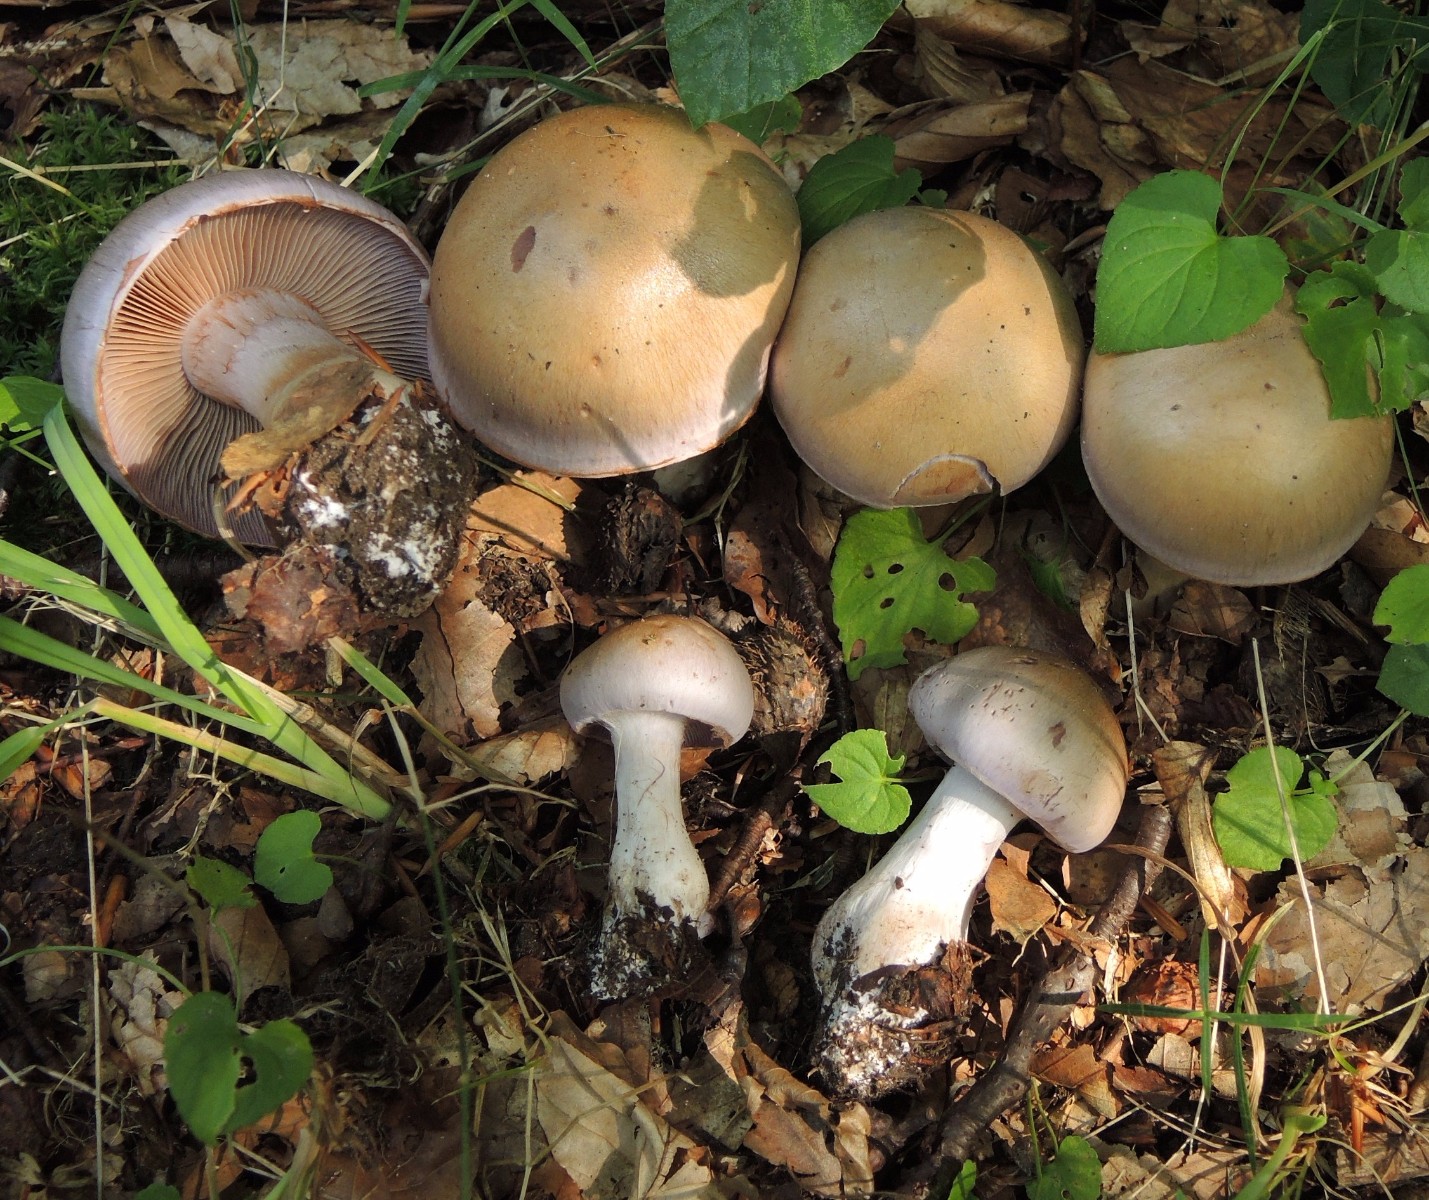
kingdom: Fungi
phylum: Basidiomycota
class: Agaricomycetes
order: Agaricales
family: Cortinariaceae
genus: Cortinarius
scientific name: Cortinarius largus
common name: violetrandet slørhat
